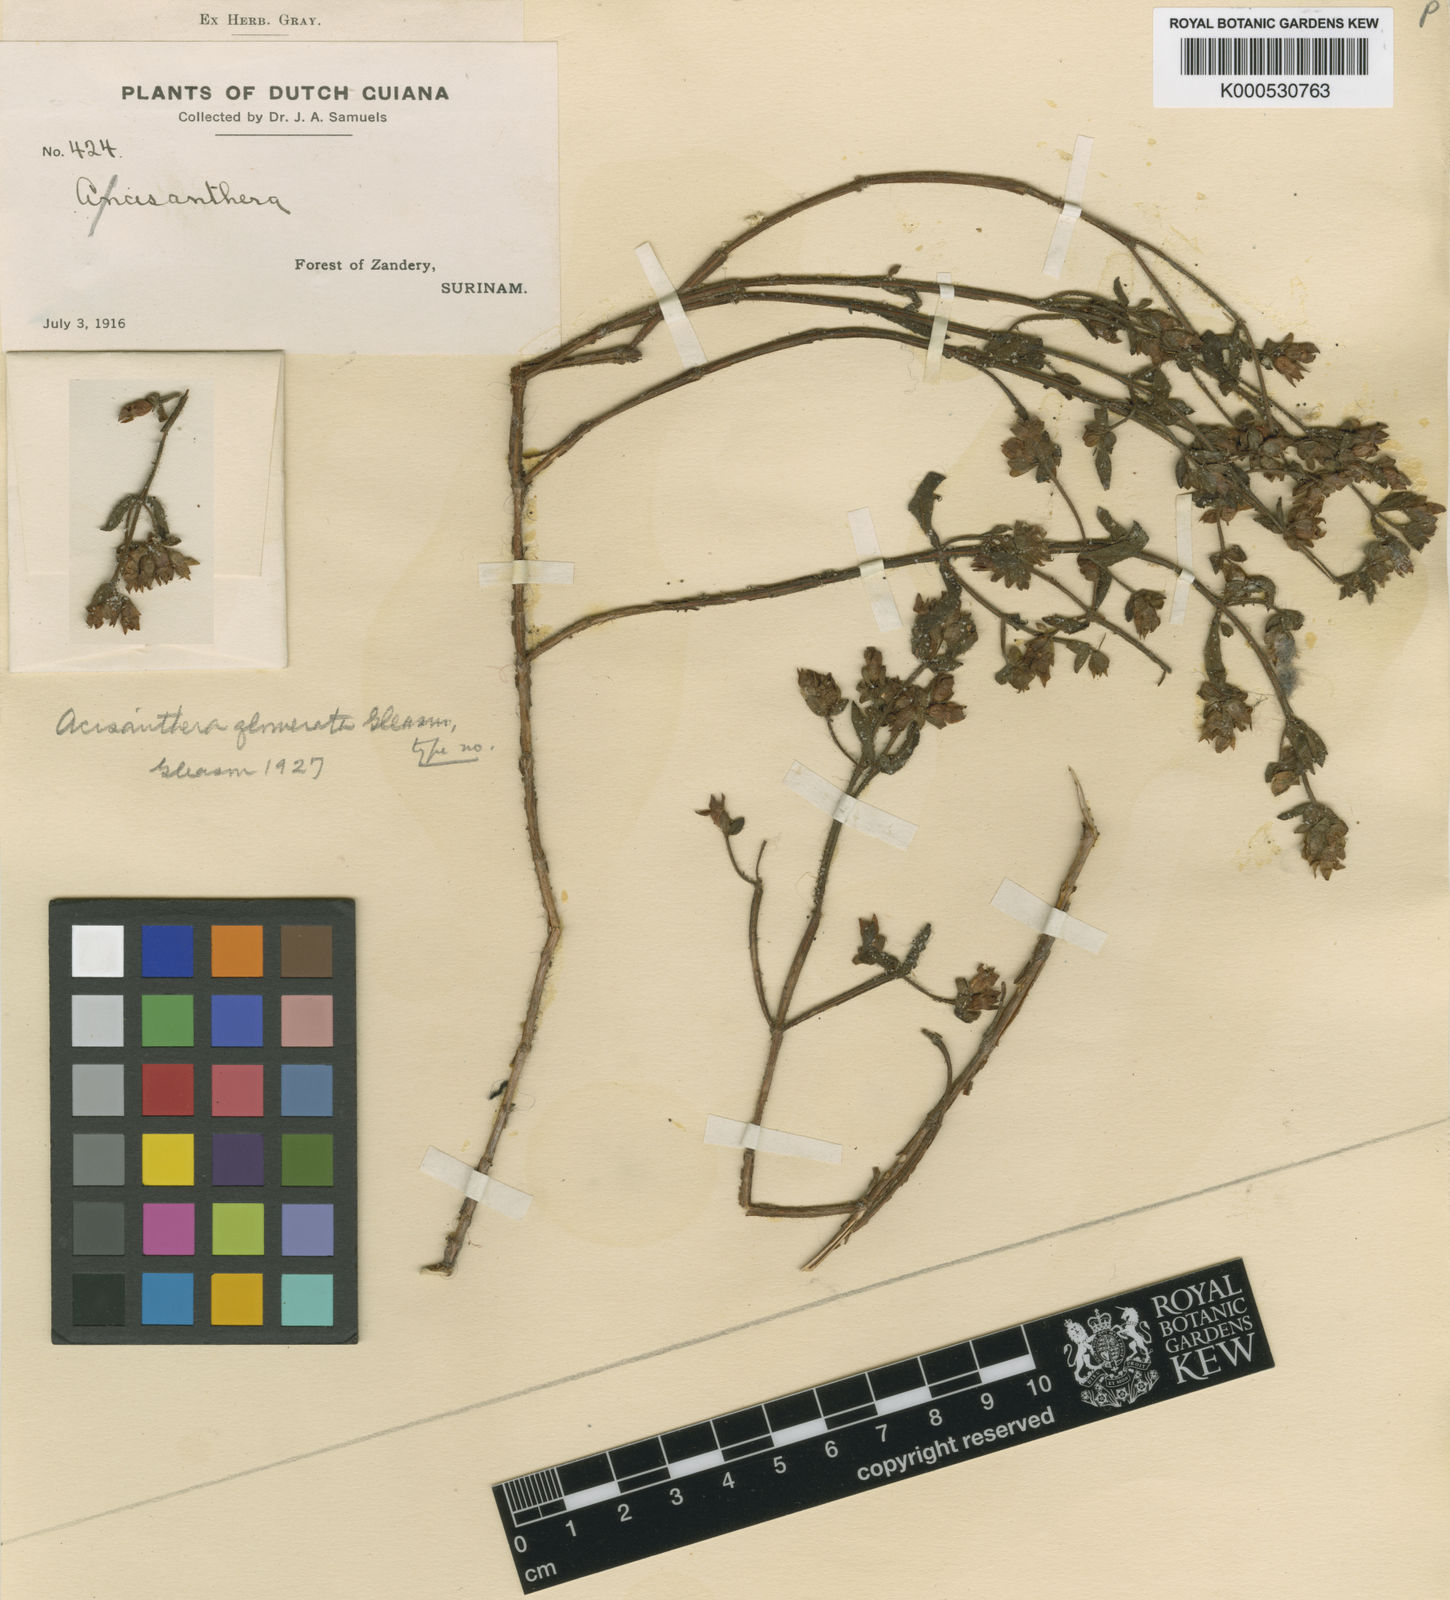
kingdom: Plantae
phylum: Tracheophyta
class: Magnoliopsida
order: Myrtales
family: Melastomataceae
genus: Rostranthera
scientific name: Rostranthera tetraptera
